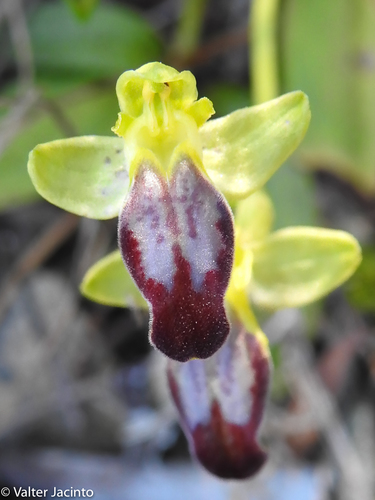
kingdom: Plantae
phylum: Tracheophyta
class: Liliopsida
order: Asparagales
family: Orchidaceae
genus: Ophrys
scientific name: Ophrys fusca
